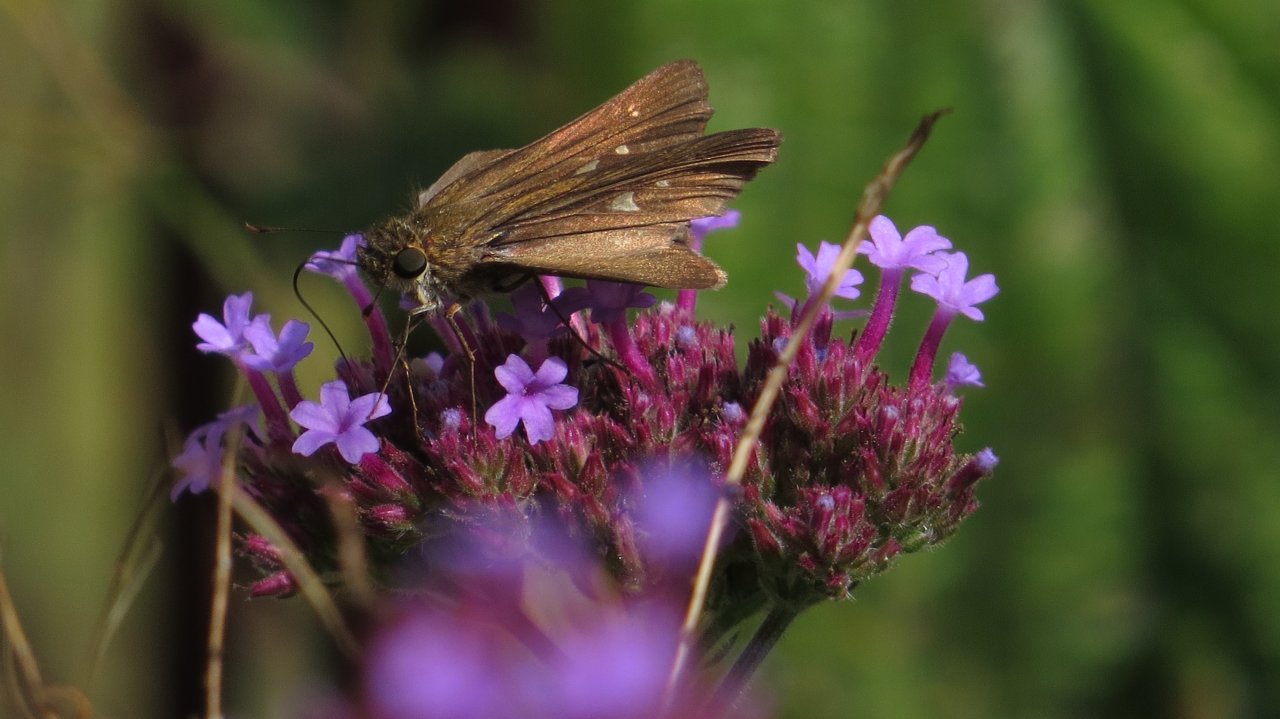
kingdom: Animalia
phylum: Arthropoda
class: Insecta
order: Lepidoptera
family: Hesperiidae
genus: Panoquina
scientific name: Panoquina ocola
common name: Ocola Skipper
